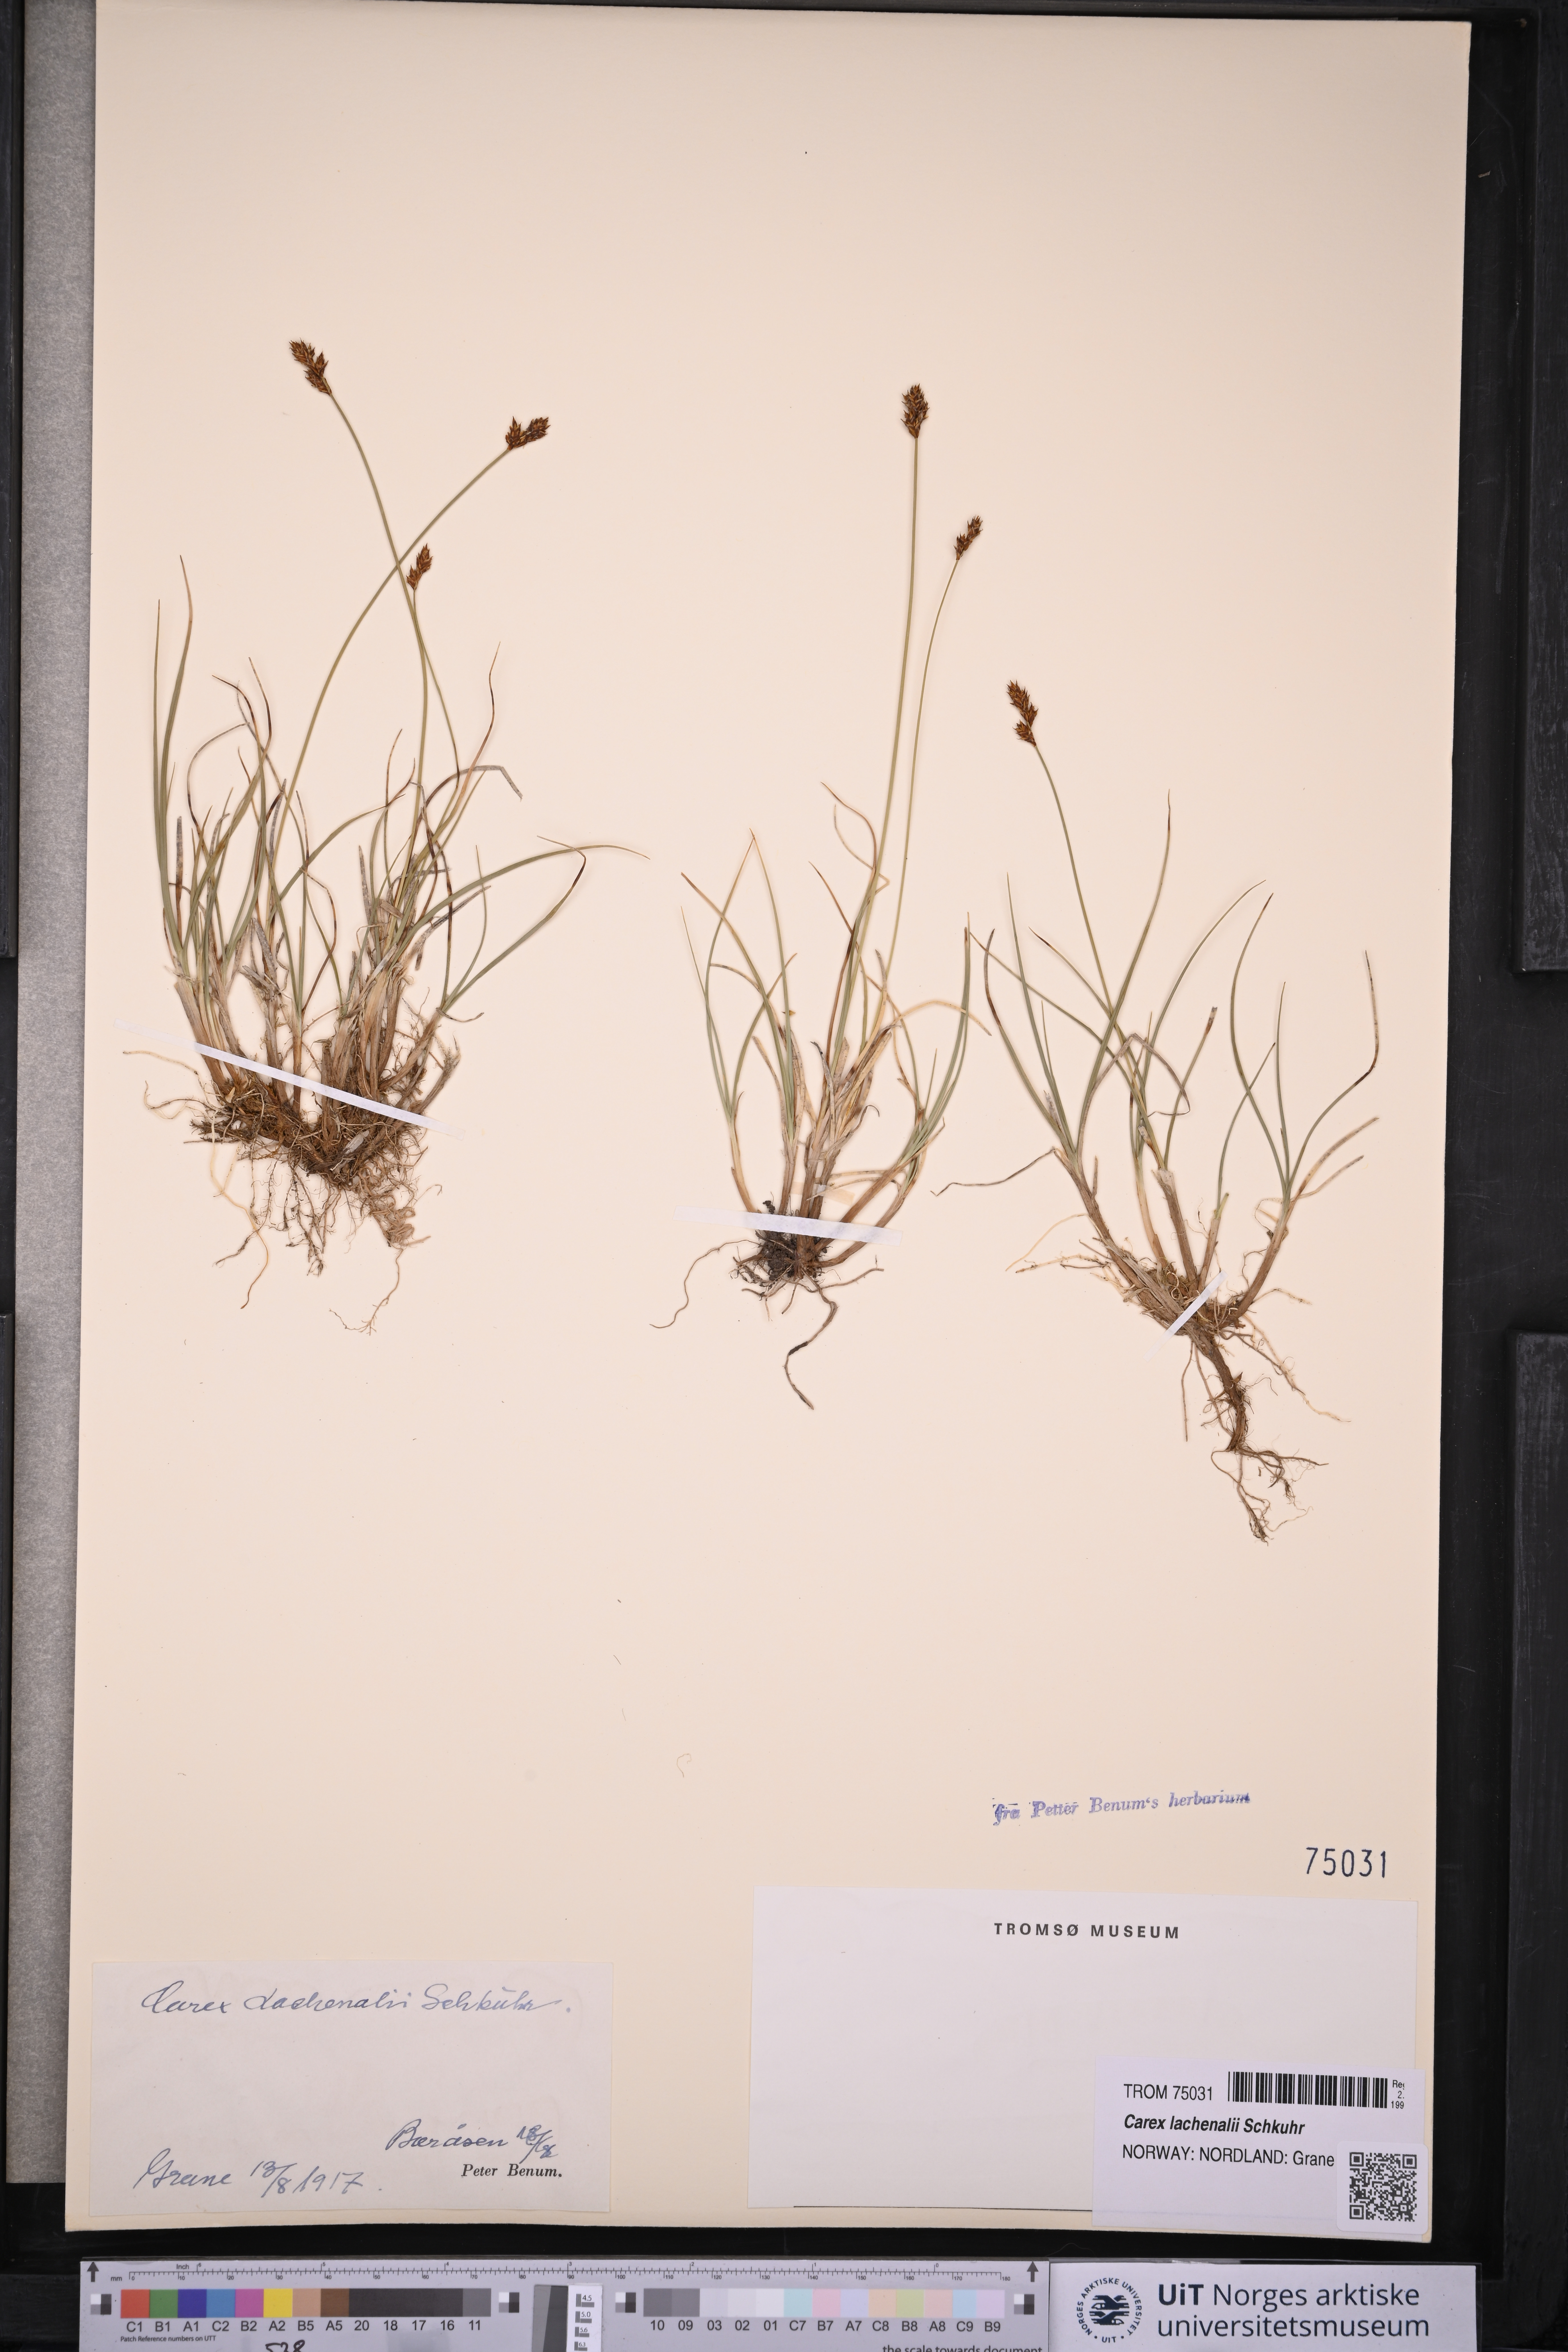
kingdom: Plantae
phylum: Tracheophyta
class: Liliopsida
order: Poales
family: Cyperaceae
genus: Carex
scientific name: Carex lachenalii
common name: Hare's-foot sedge
